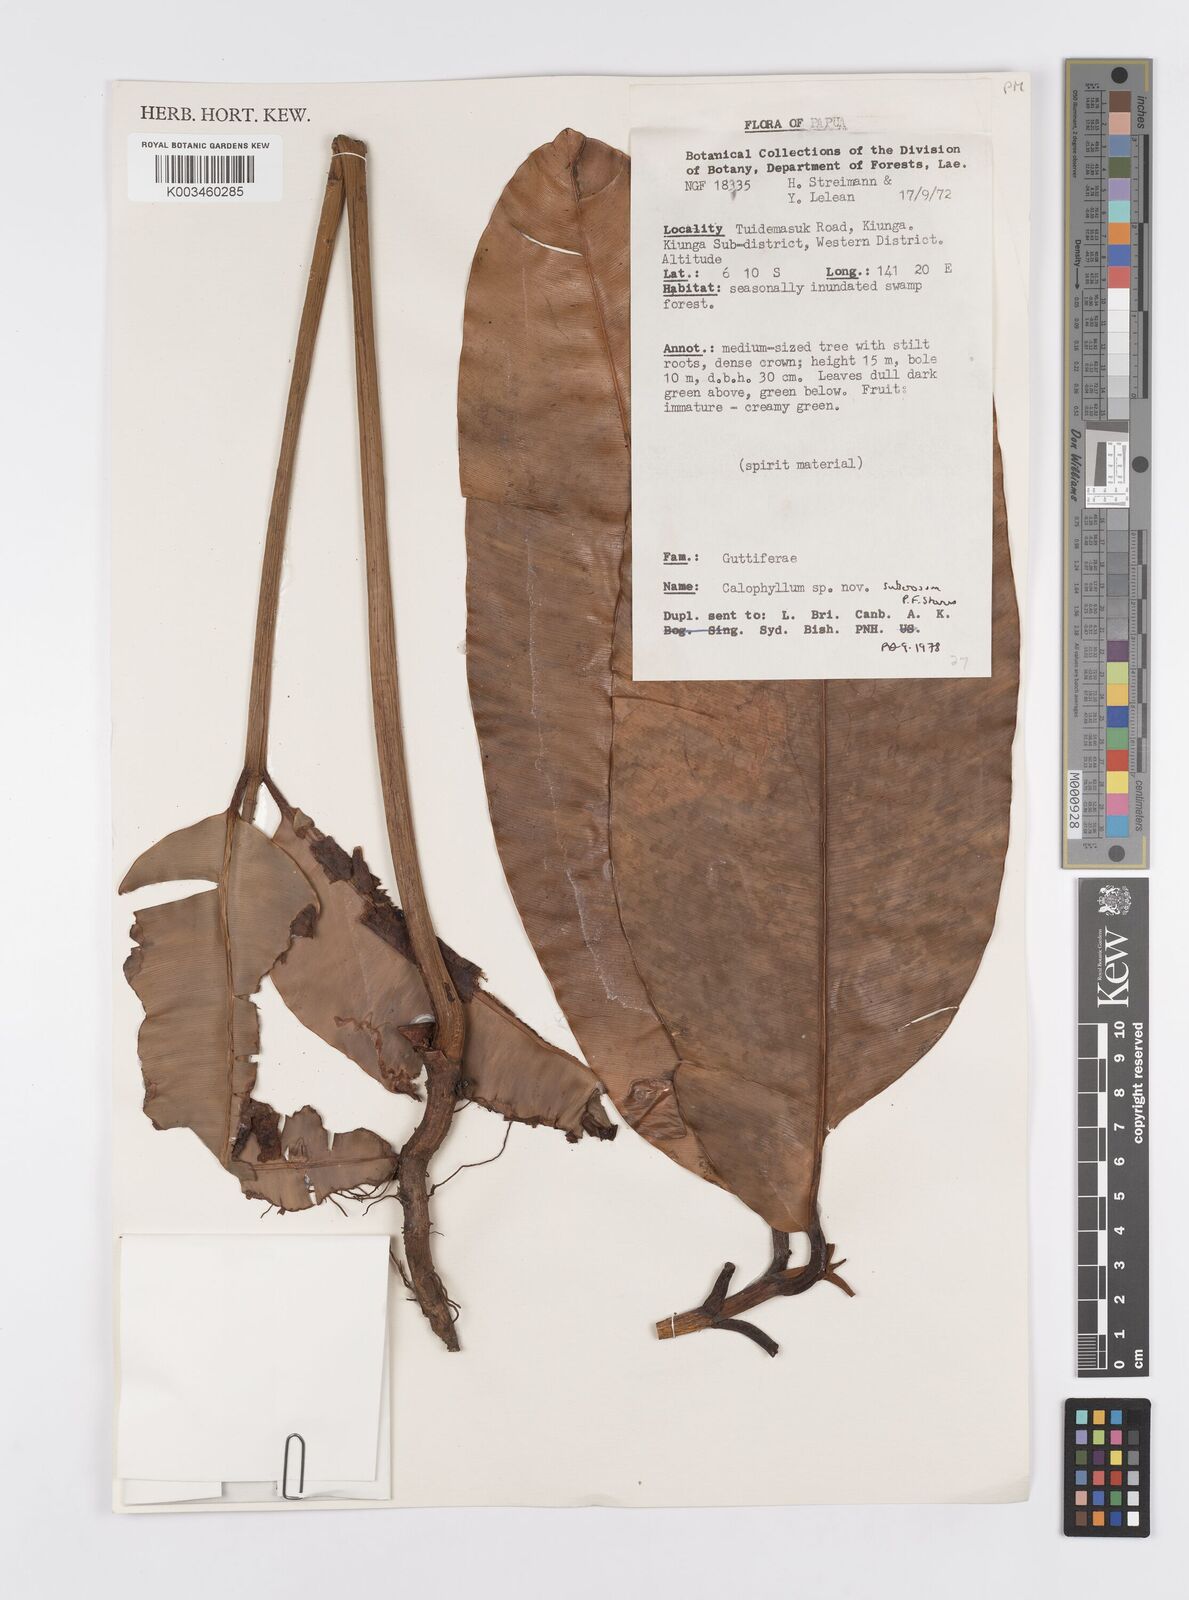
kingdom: Plantae
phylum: Tracheophyta
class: Magnoliopsida
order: Malpighiales
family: Calophyllaceae
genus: Calophyllum
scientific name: Calophyllum suberosum
